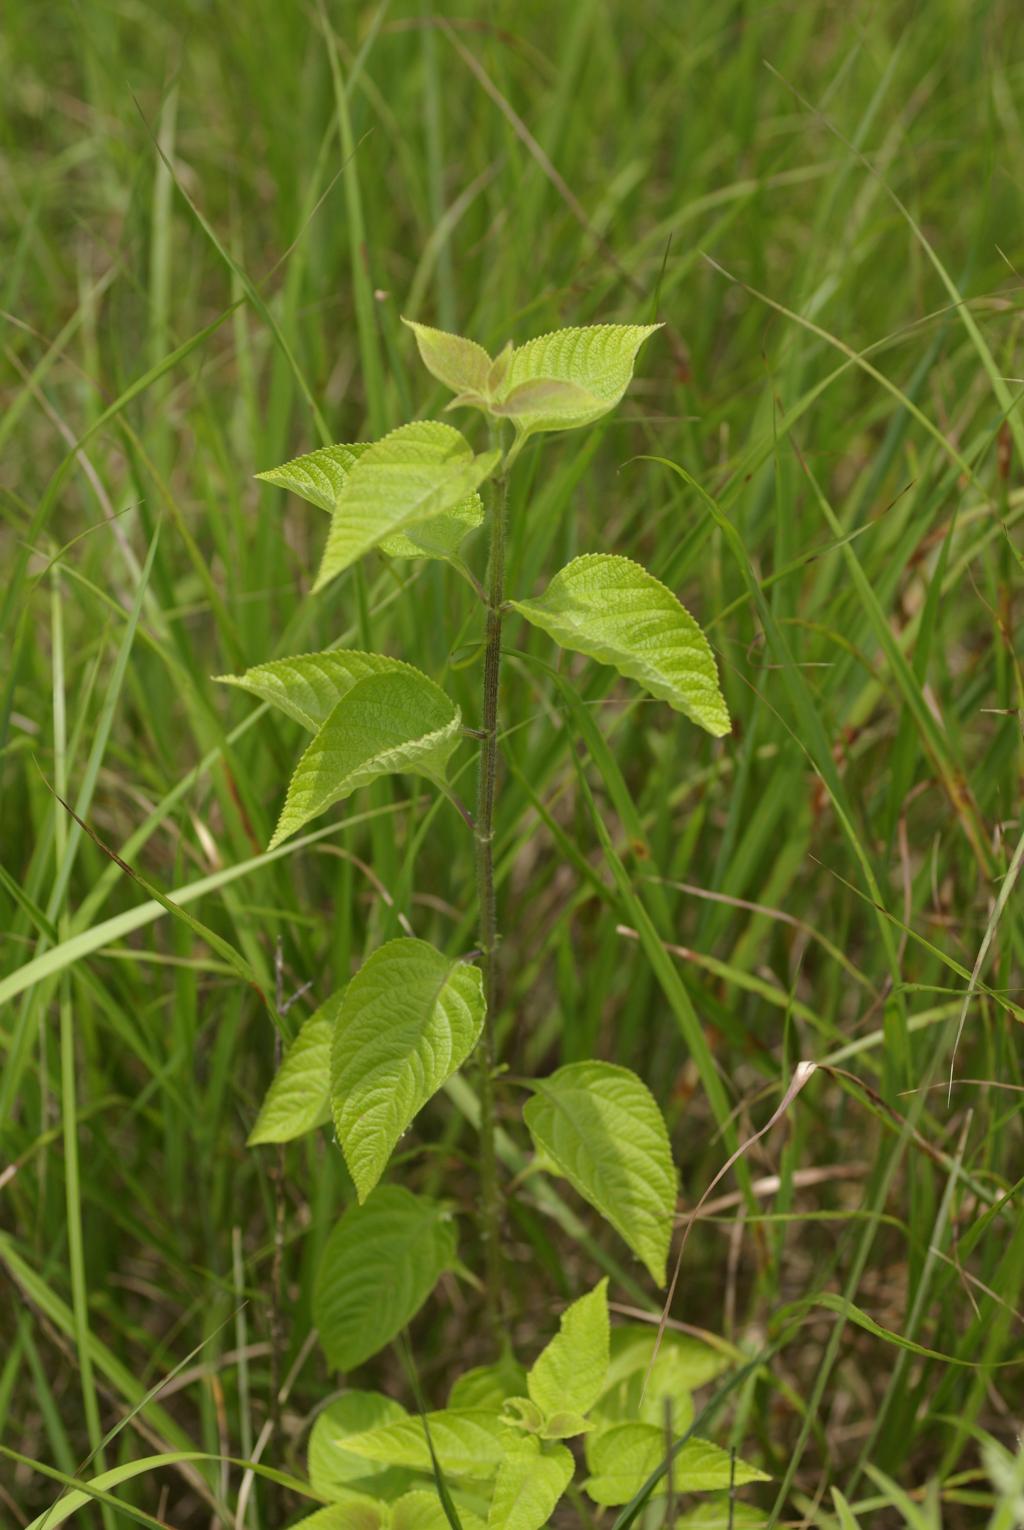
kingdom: Plantae
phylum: Tracheophyta
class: Magnoliopsida
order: Lamiales
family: Verbenaceae
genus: Lantana
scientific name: Lantana camara
